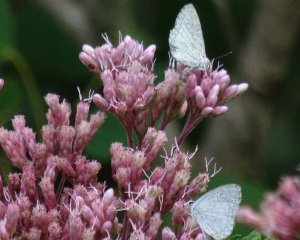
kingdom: Animalia
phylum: Arthropoda
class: Insecta
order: Lepidoptera
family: Lycaenidae
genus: Cyaniris
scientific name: Cyaniris neglecta
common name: Summer Azure
